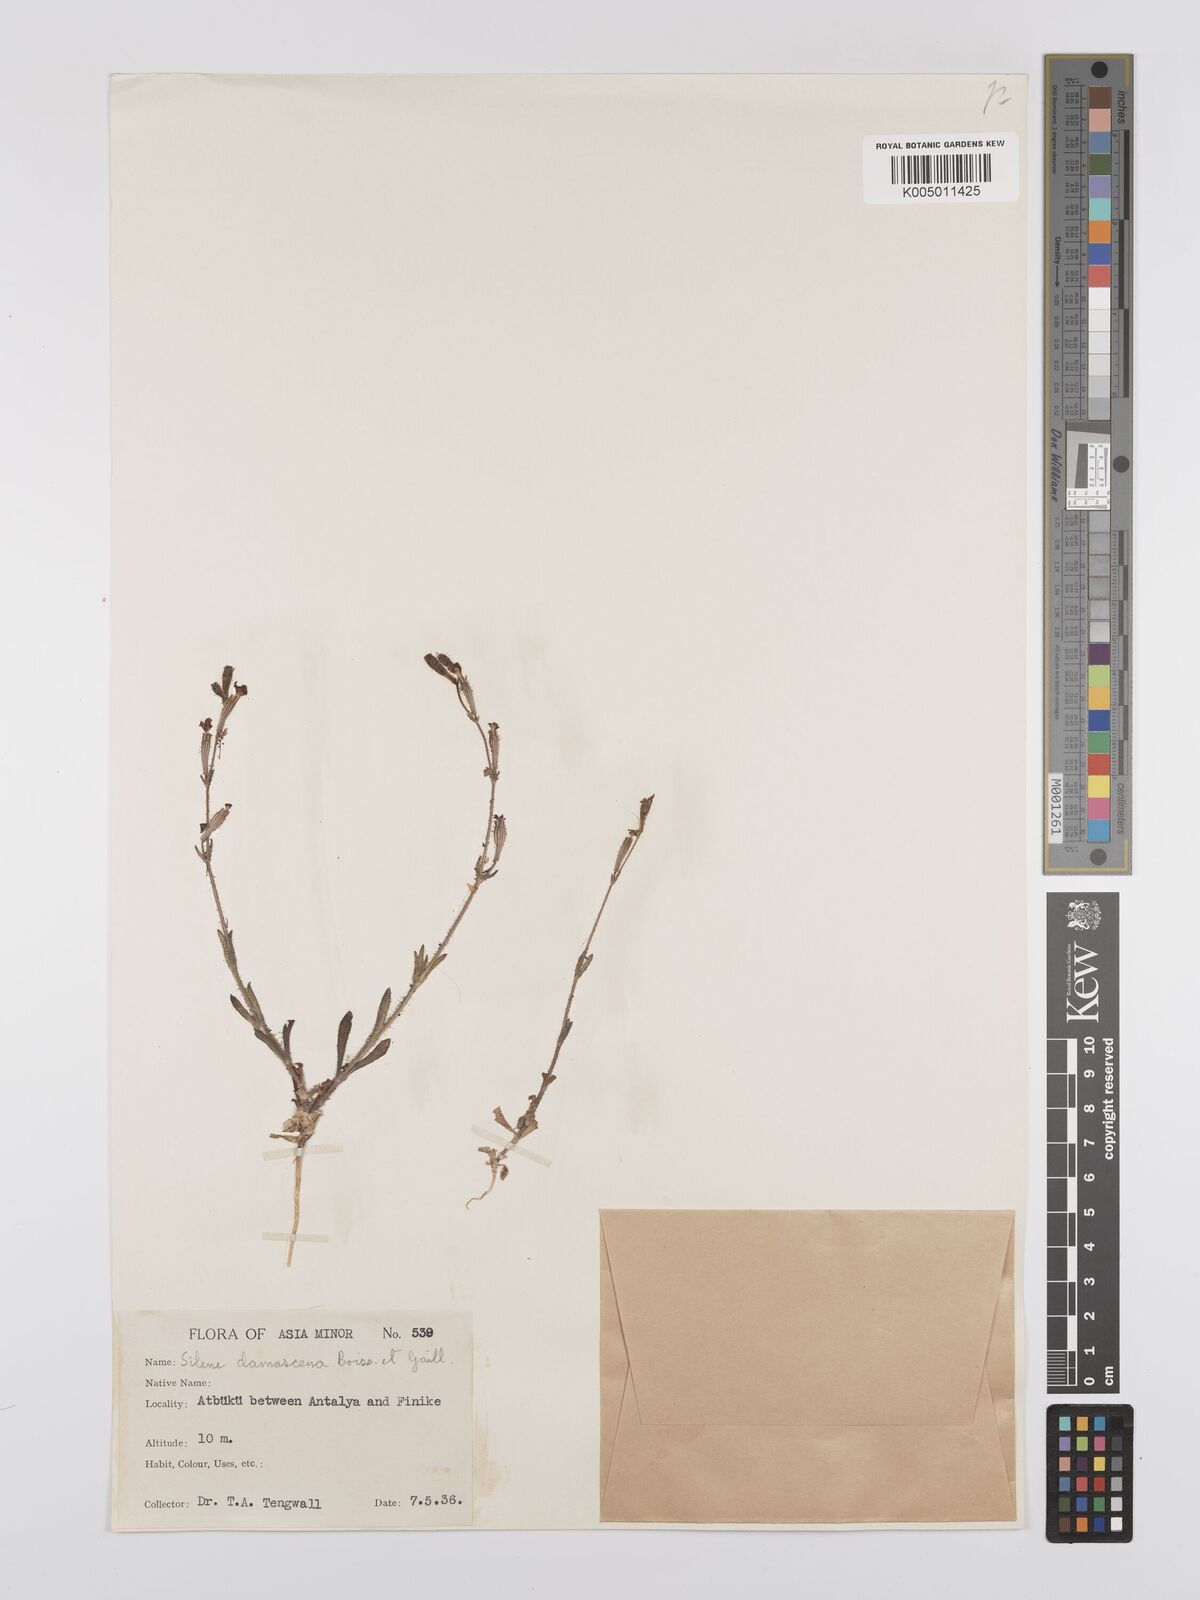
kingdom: Plantae
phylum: Tracheophyta
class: Magnoliopsida
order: Caryophyllales
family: Caryophyllaceae
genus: Silene
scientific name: Silene damascena
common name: Damascus catchfly
